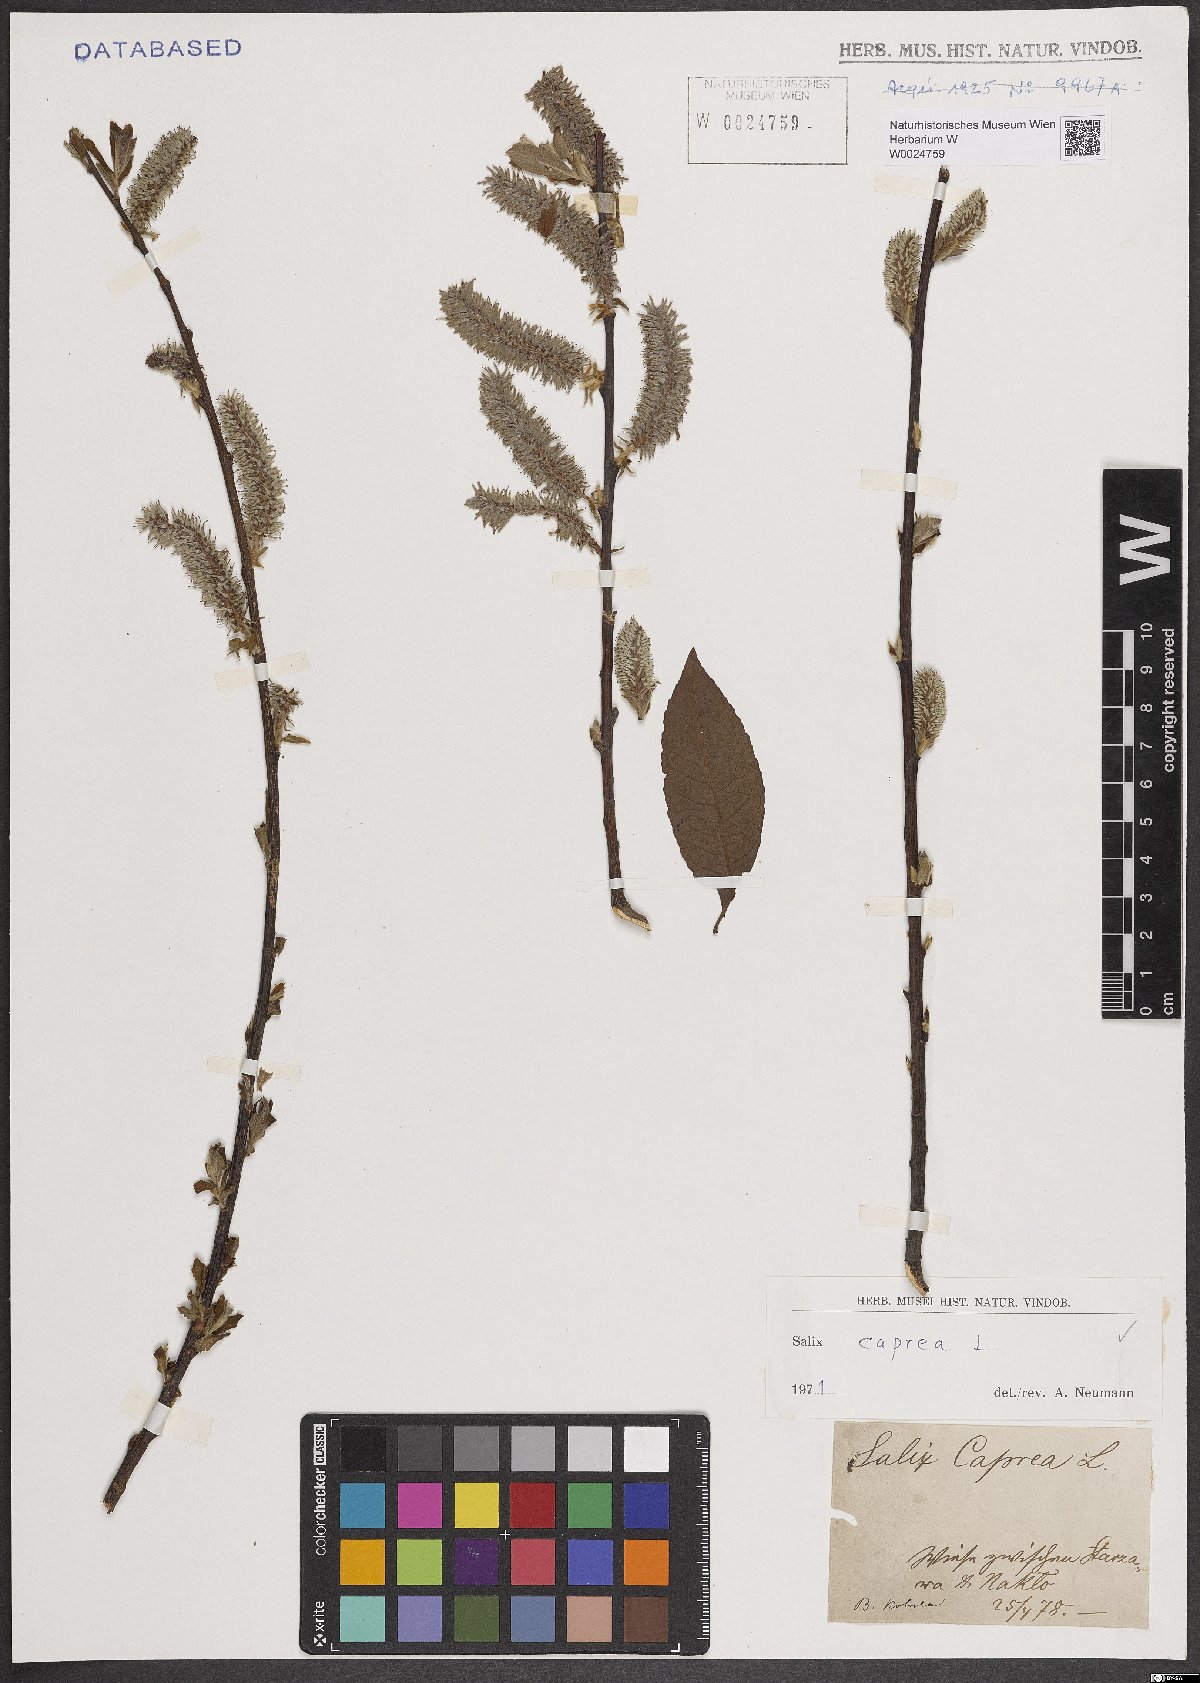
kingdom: Plantae
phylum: Tracheophyta
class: Magnoliopsida
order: Malpighiales
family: Salicaceae
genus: Salix
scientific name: Salix caprea
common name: Goat willow
